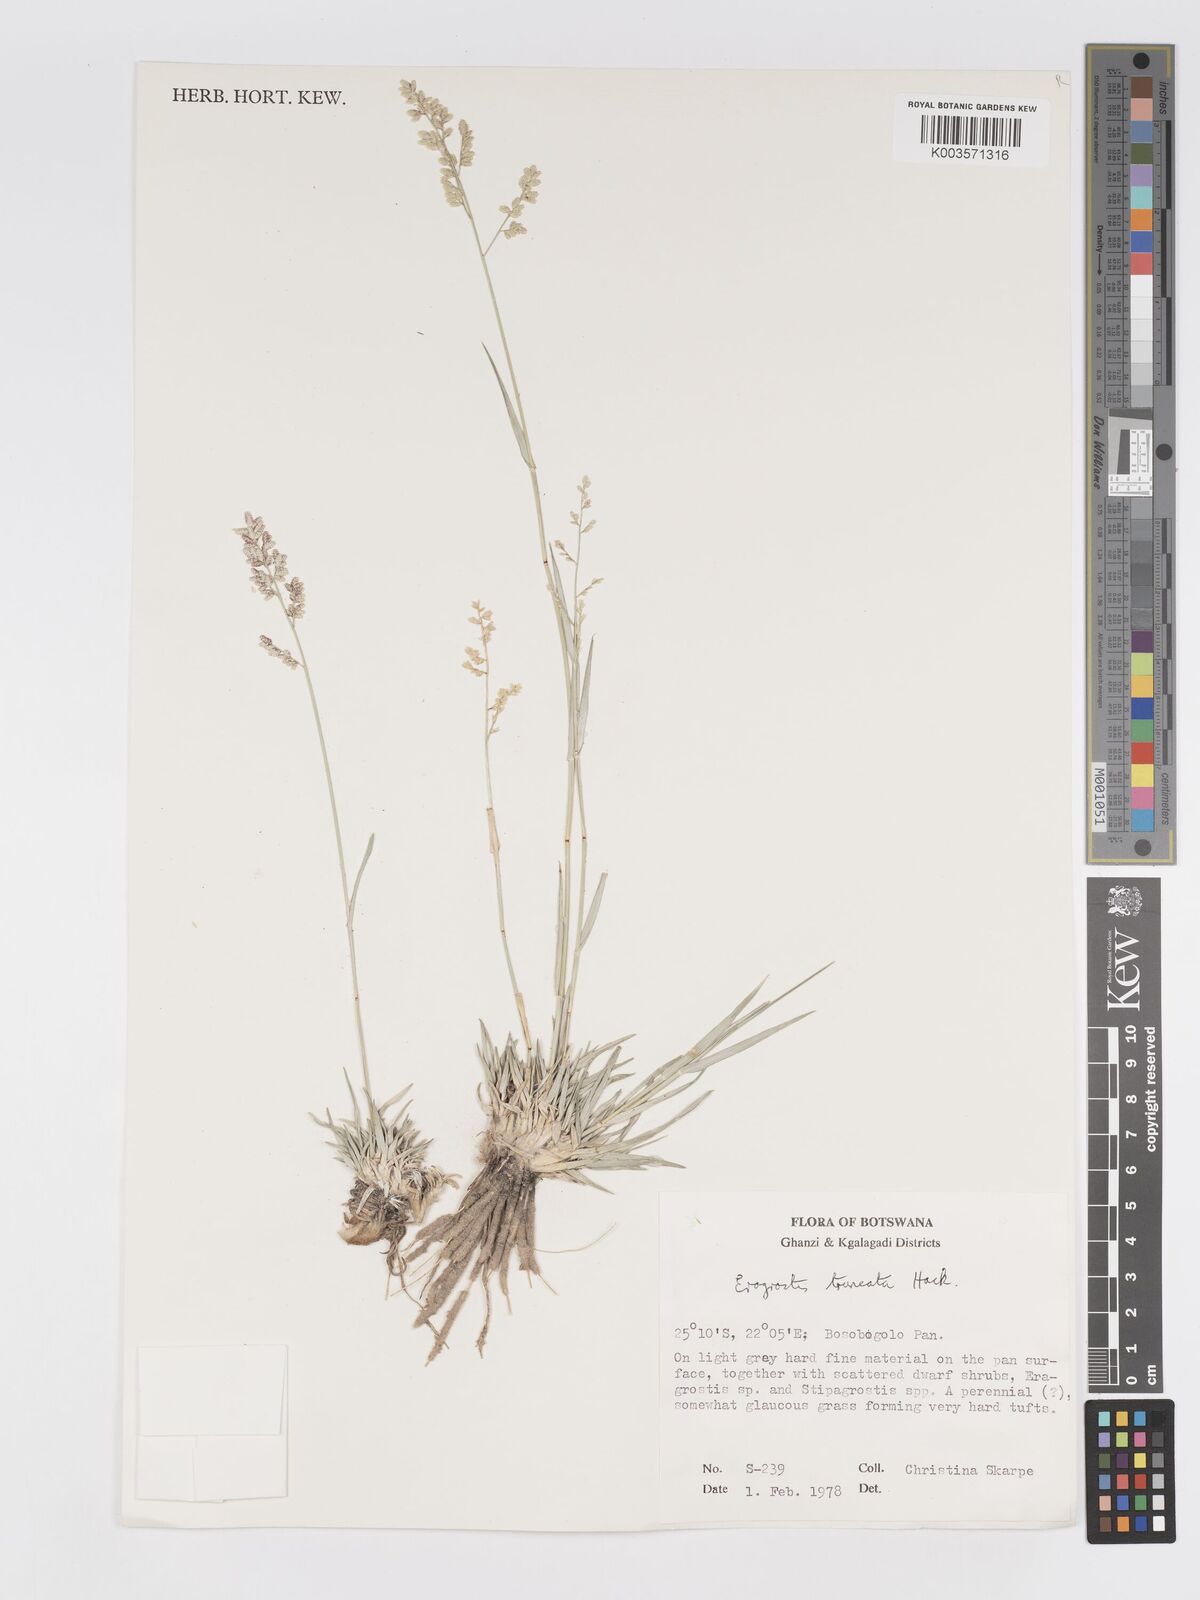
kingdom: Plantae
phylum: Tracheophyta
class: Liliopsida
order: Poales
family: Poaceae
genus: Eragrostis
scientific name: Eragrostis truncata
